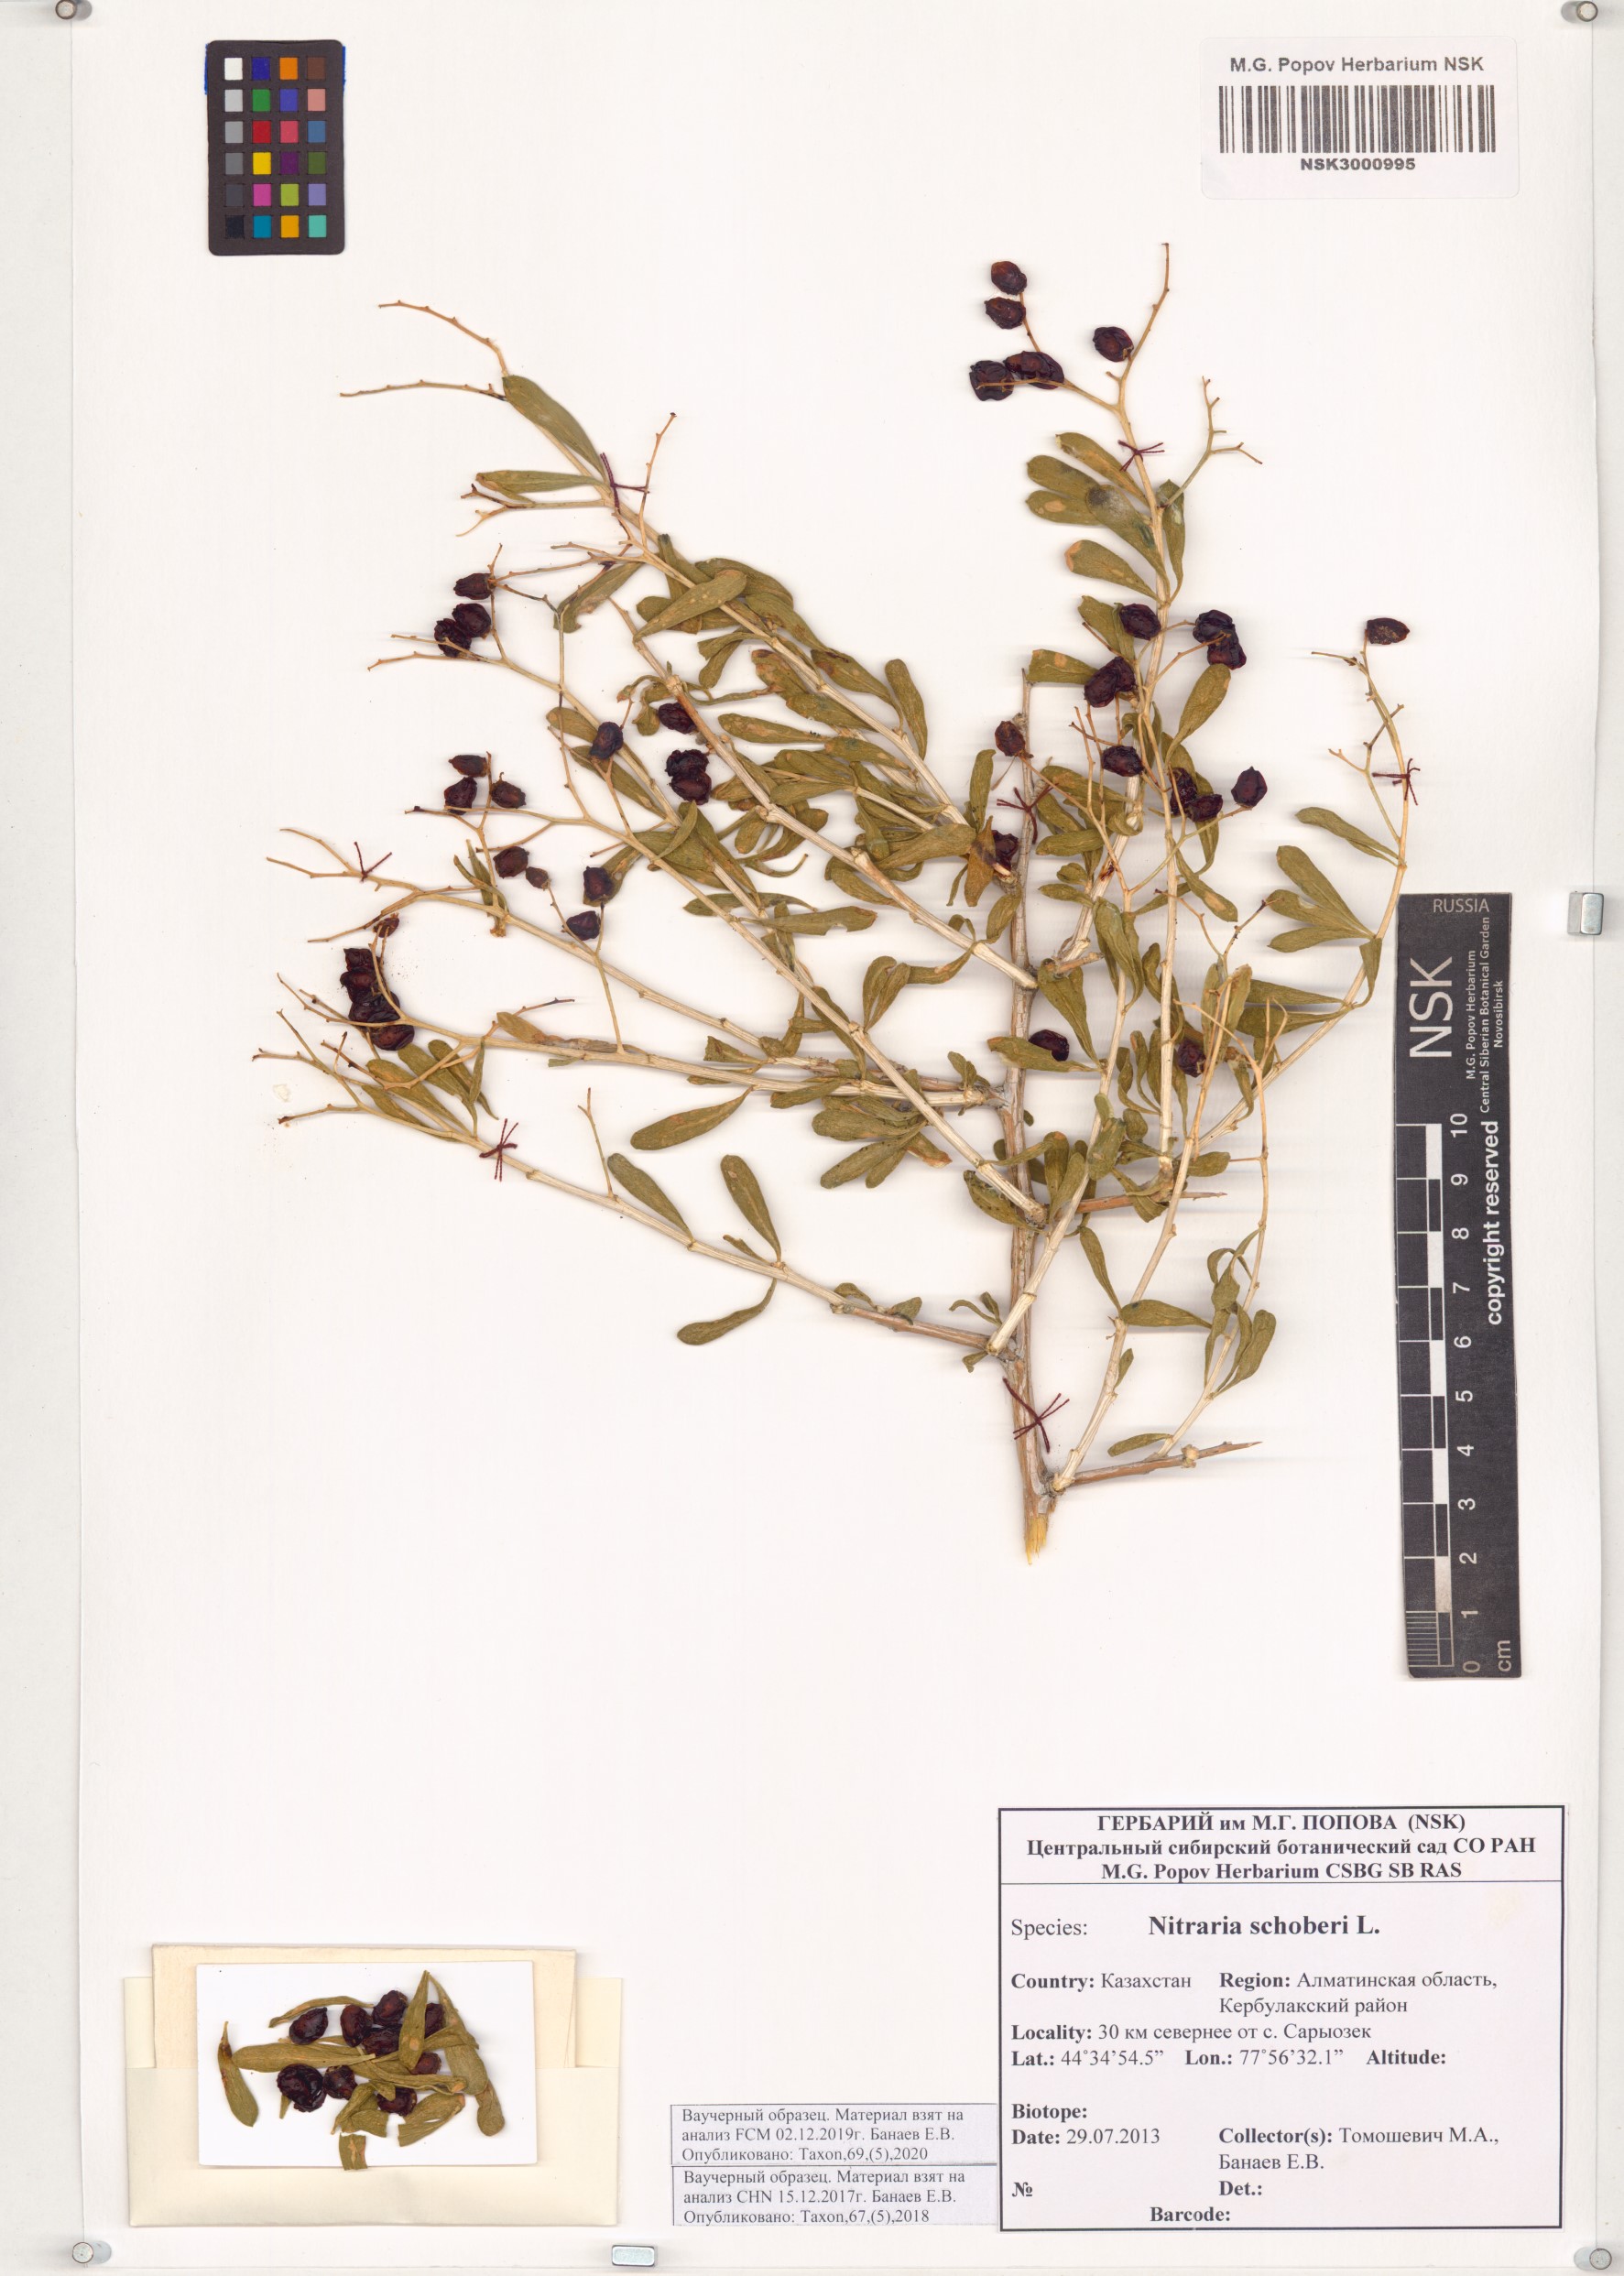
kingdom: Plantae
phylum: Tracheophyta
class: Magnoliopsida
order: Sapindales
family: Nitrariaceae
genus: Nitraria
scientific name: Nitraria schoberi
